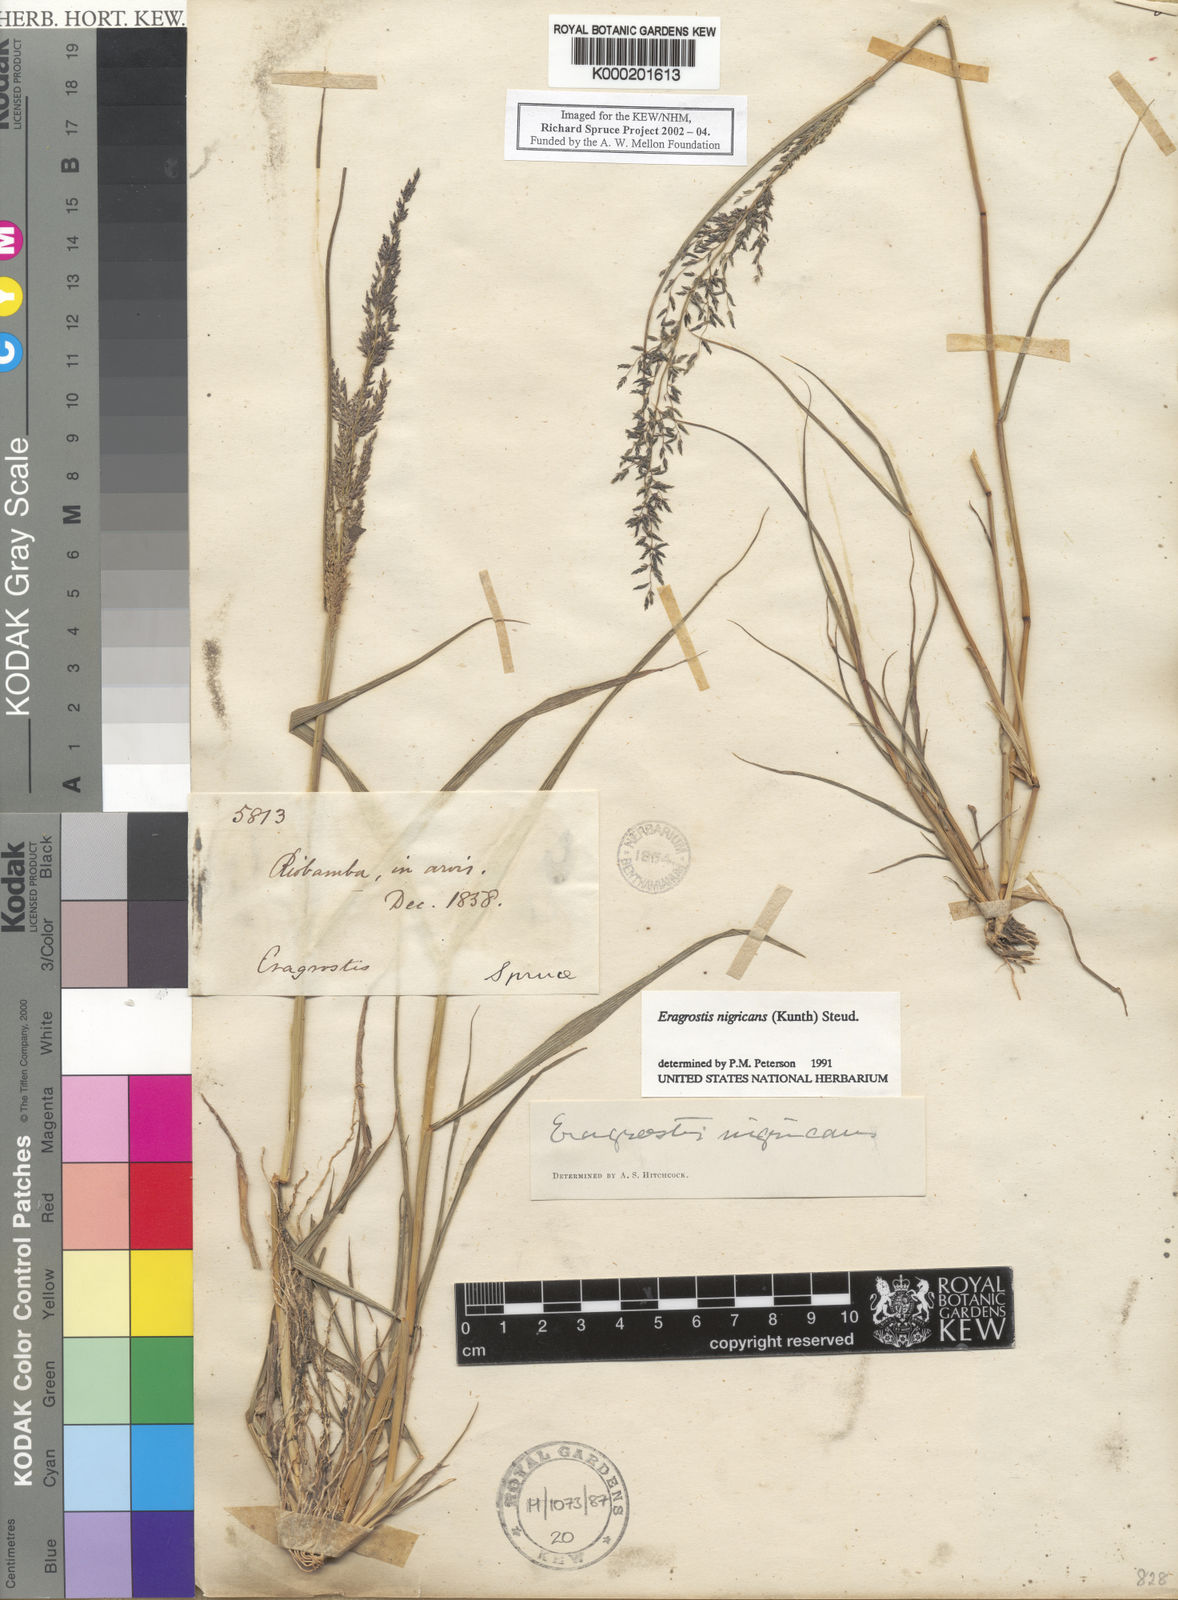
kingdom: Plantae
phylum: Tracheophyta
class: Liliopsida
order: Poales
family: Poaceae
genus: Eragrostis
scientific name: Eragrostis nigricans
